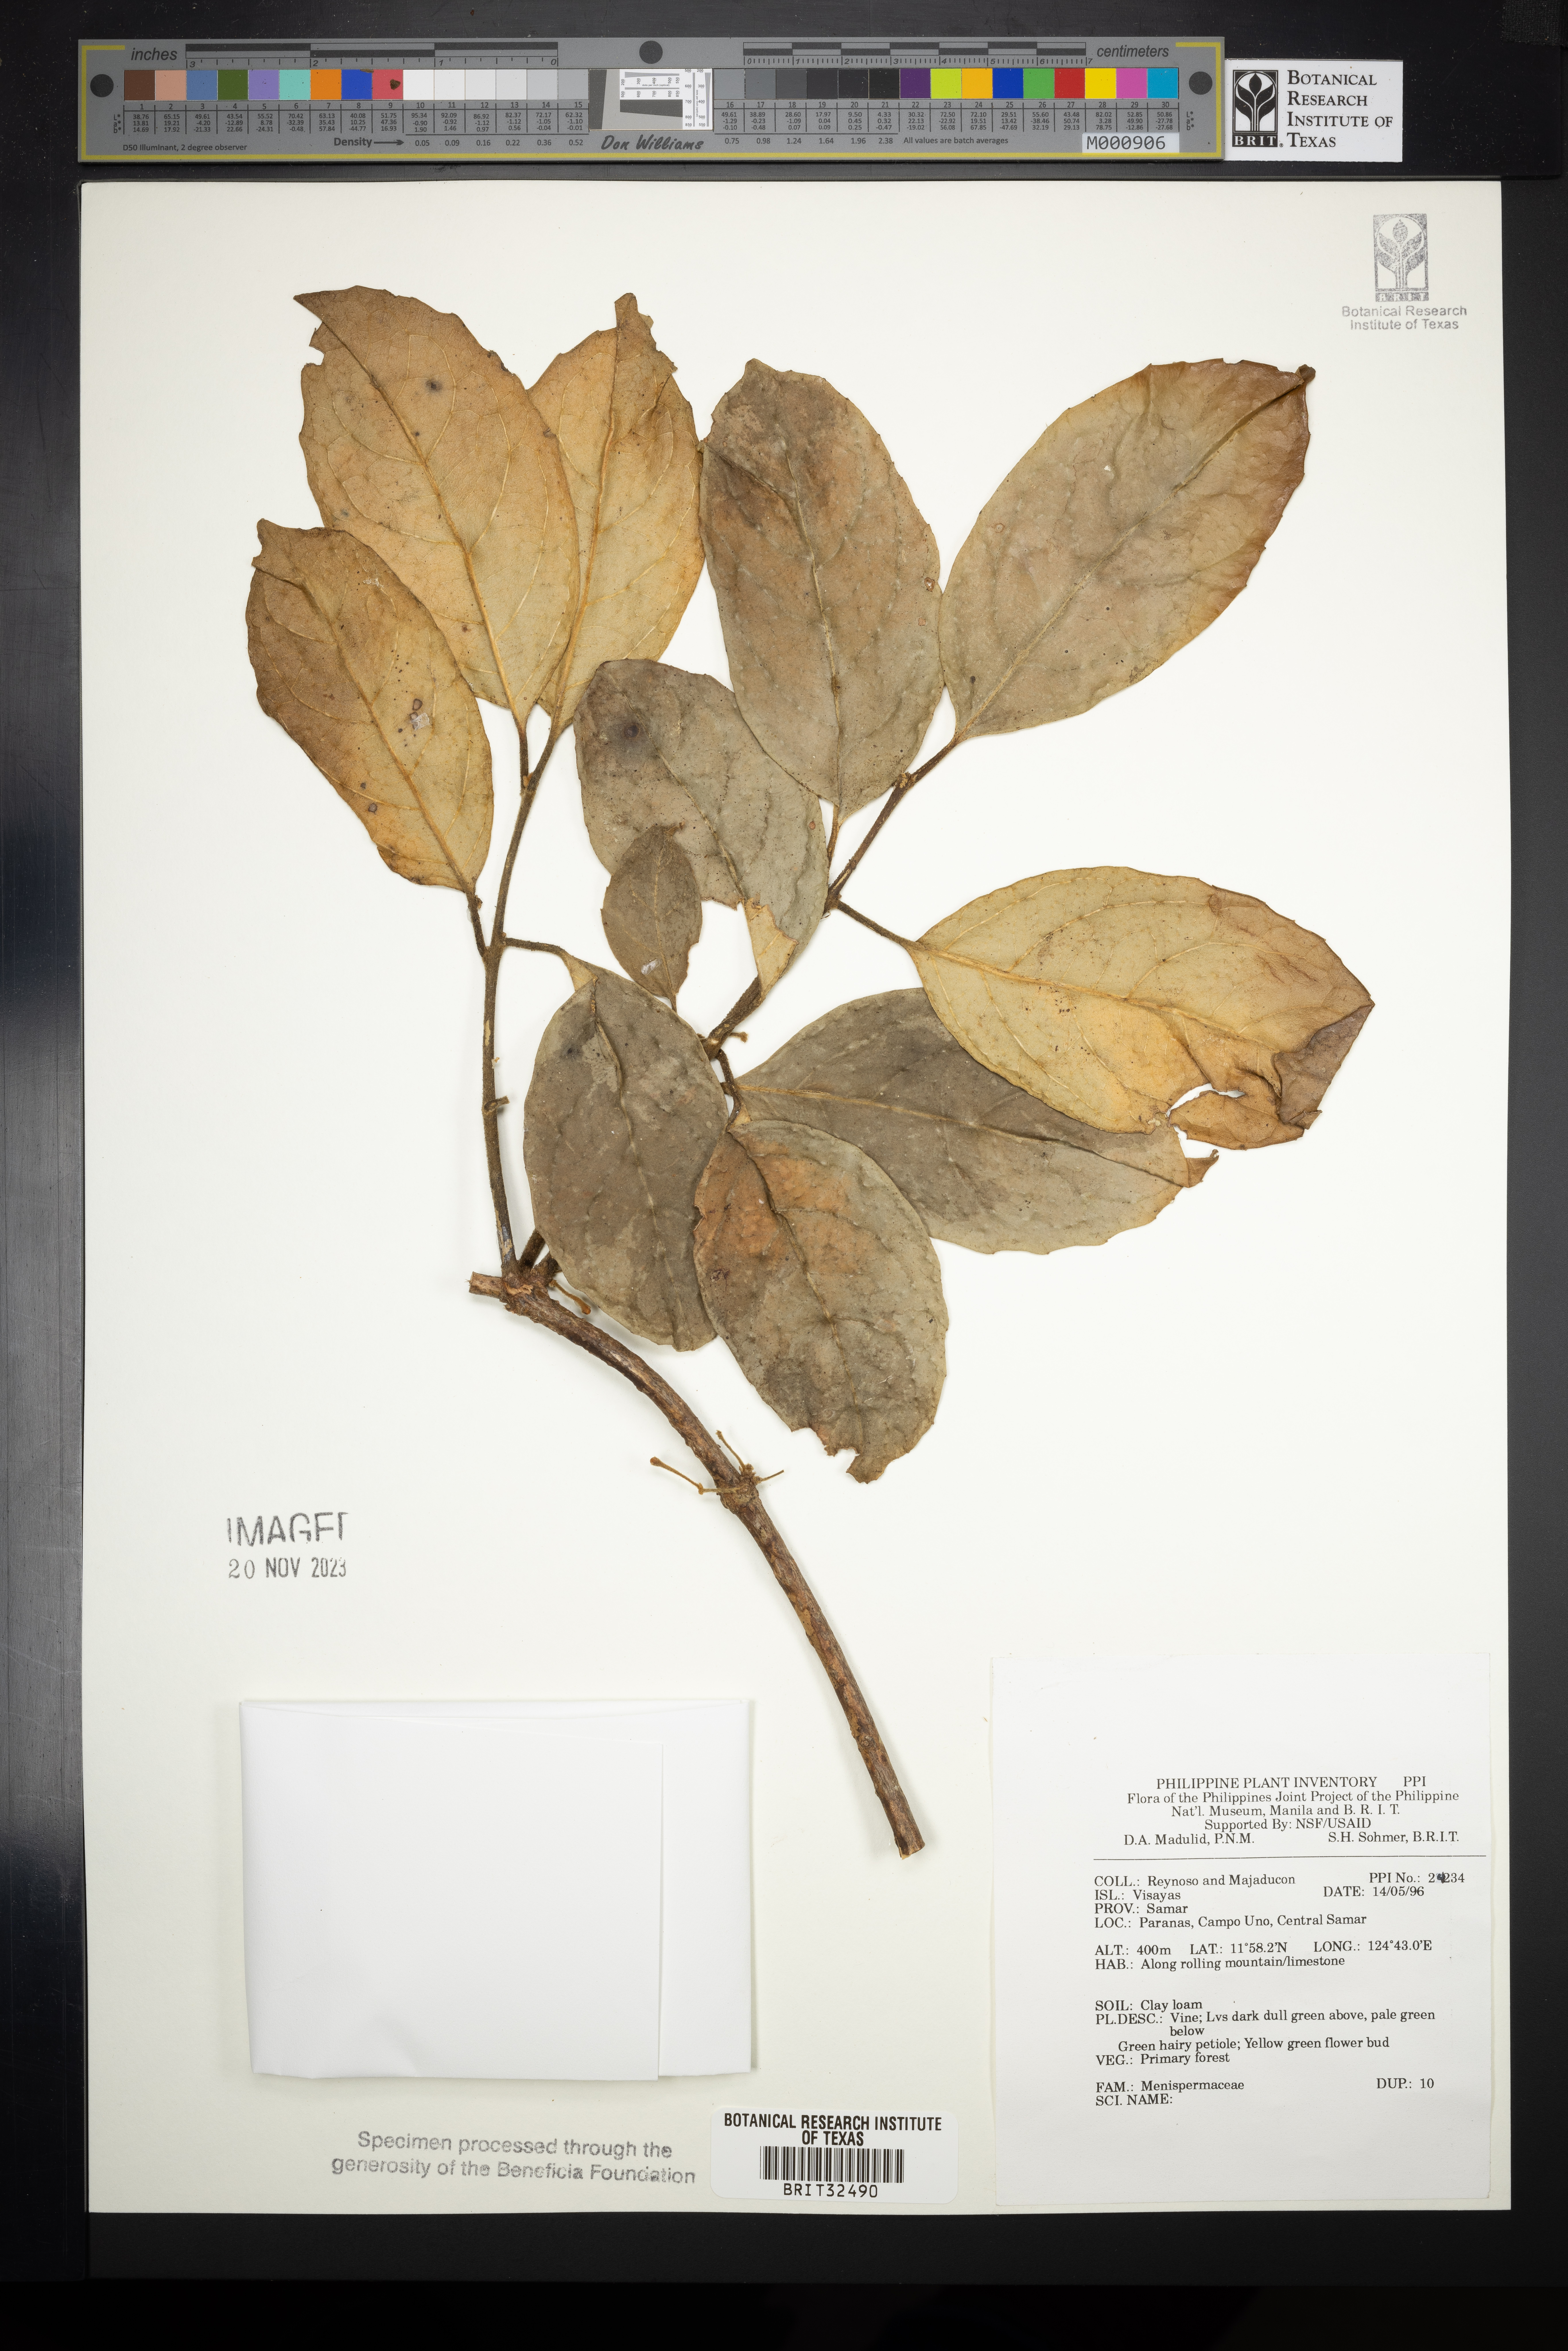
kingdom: Plantae
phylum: Tracheophyta
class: Magnoliopsida
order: Ranunculales
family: Menispermaceae
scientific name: Menispermaceae
